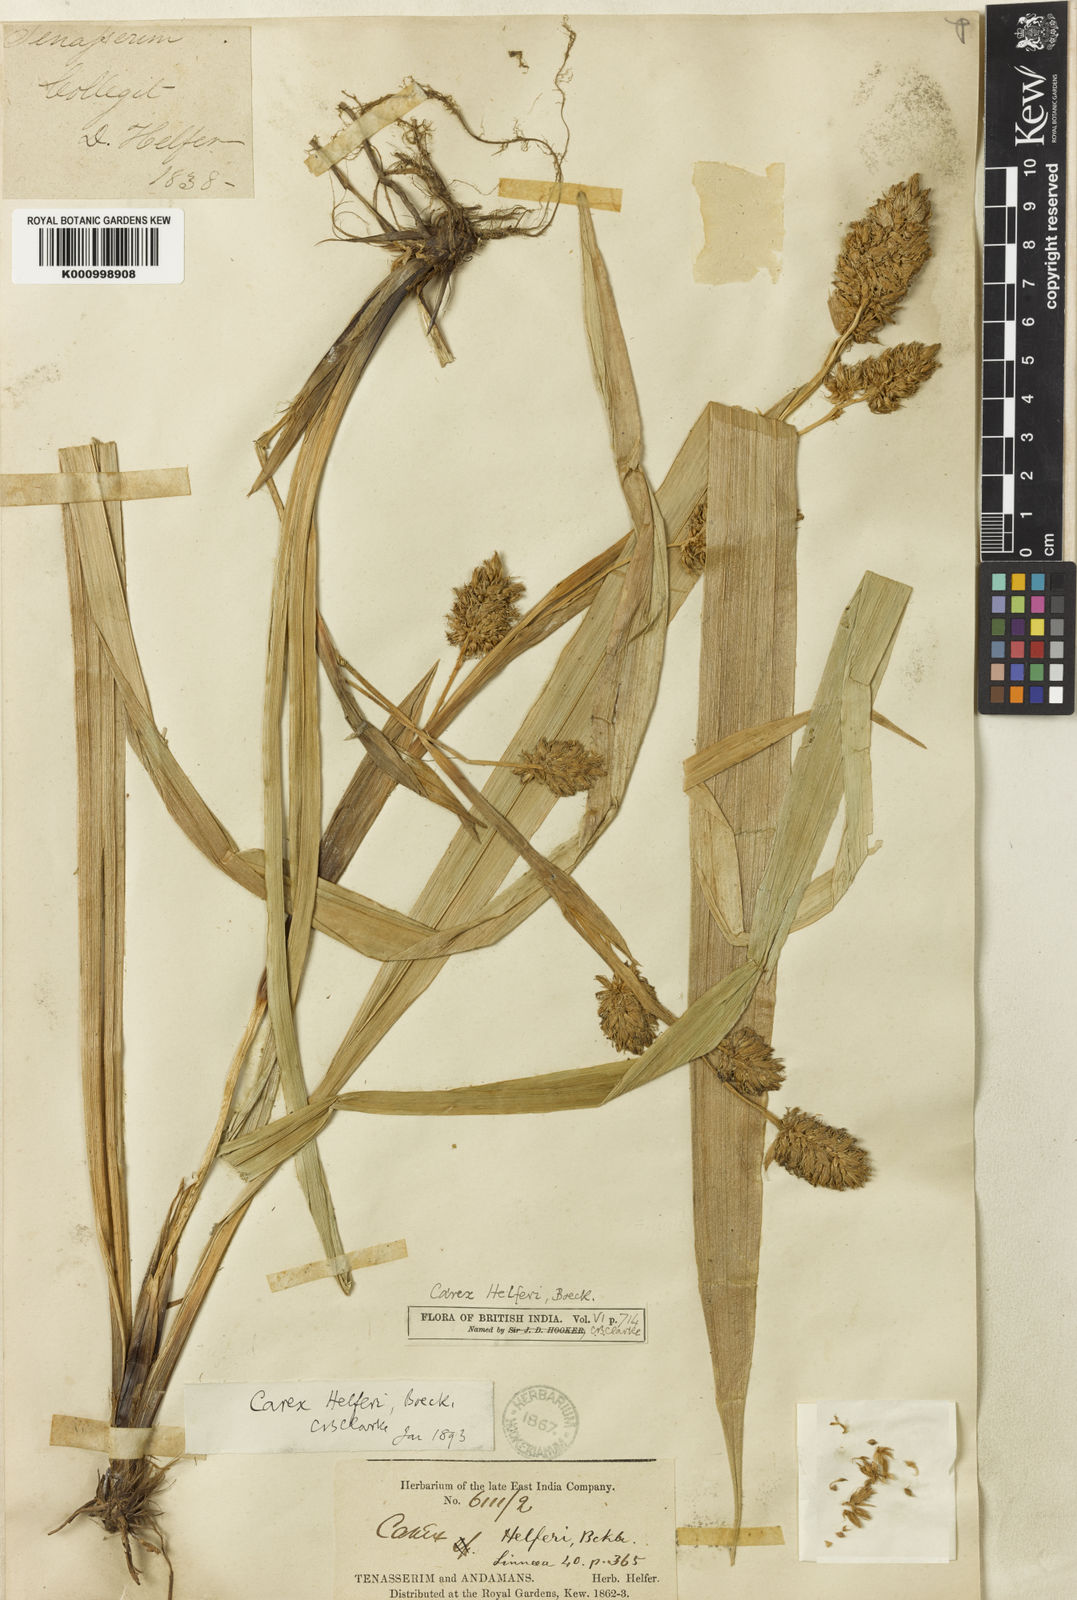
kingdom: Plantae
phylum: Tracheophyta
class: Liliopsida
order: Poales
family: Cyperaceae
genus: Carex
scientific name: Carex helferi
